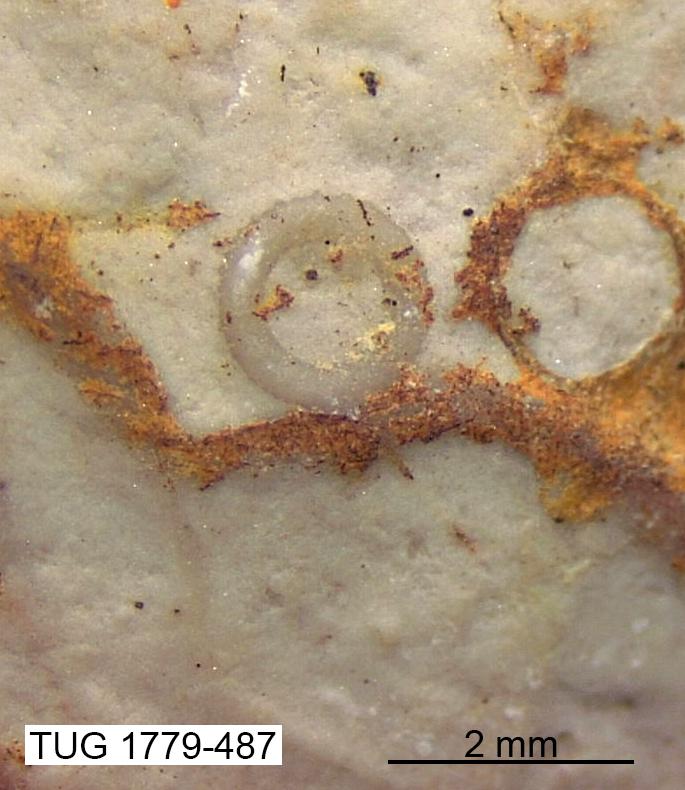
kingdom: Animalia
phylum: Bryozoa
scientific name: Bryozoa
